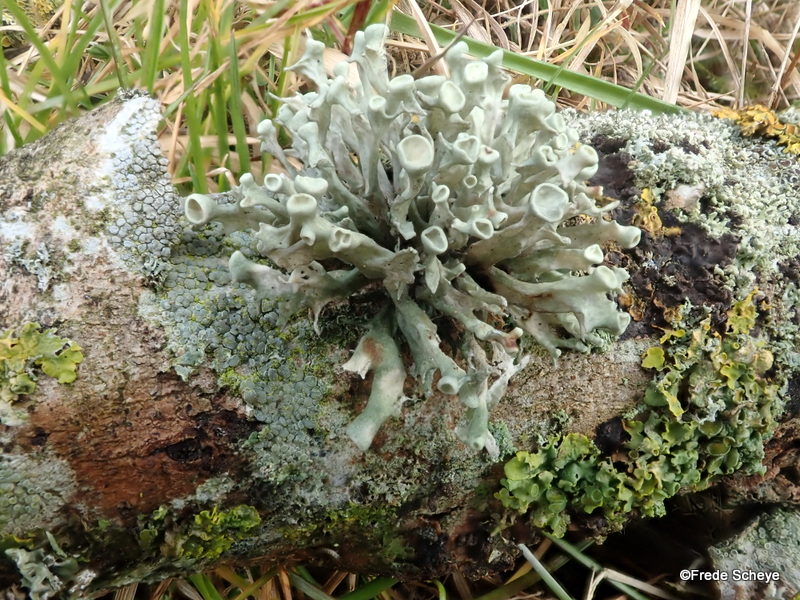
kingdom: Fungi
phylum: Ascomycota
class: Lecanoromycetes
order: Lecanorales
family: Ramalinaceae
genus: Ramalina
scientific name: Ramalina fastigiata
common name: tue-grenlav
